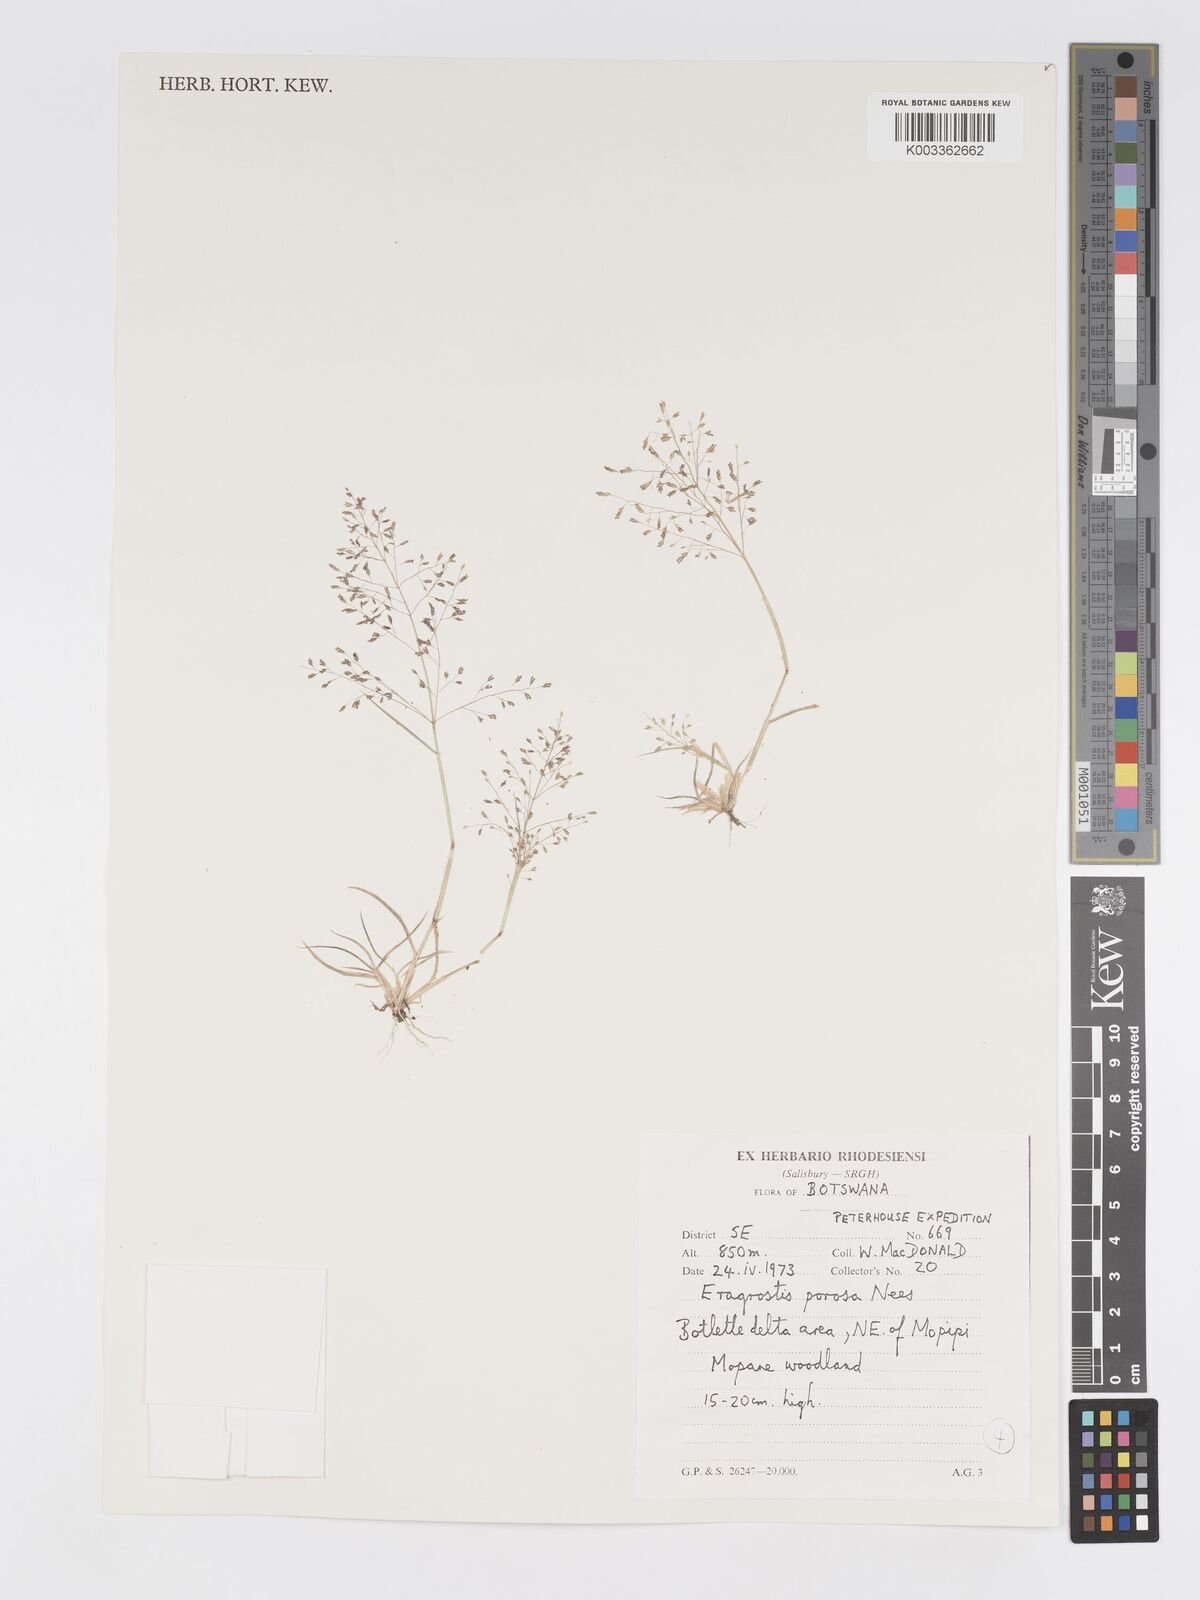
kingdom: Plantae
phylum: Tracheophyta
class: Liliopsida
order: Poales
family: Poaceae
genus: Eragrostis
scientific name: Eragrostis porosa
